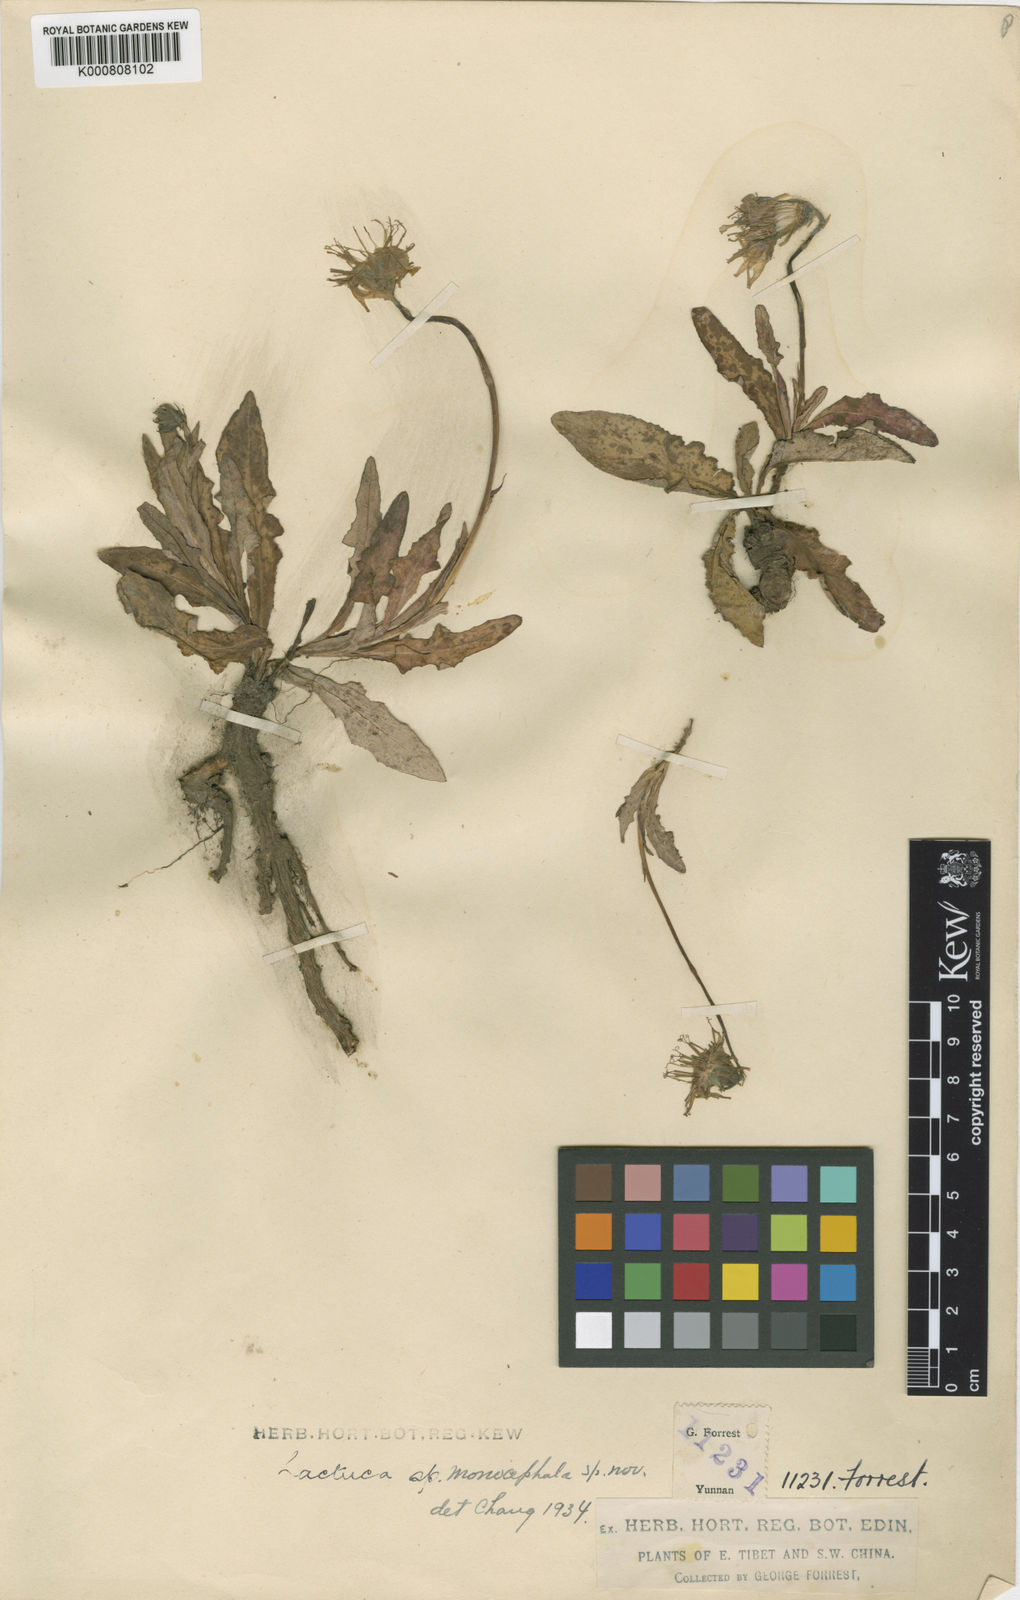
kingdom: Plantae
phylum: Tracheophyta
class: Magnoliopsida
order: Asterales
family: Asteraceae
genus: Lactuca
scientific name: Lactuca
